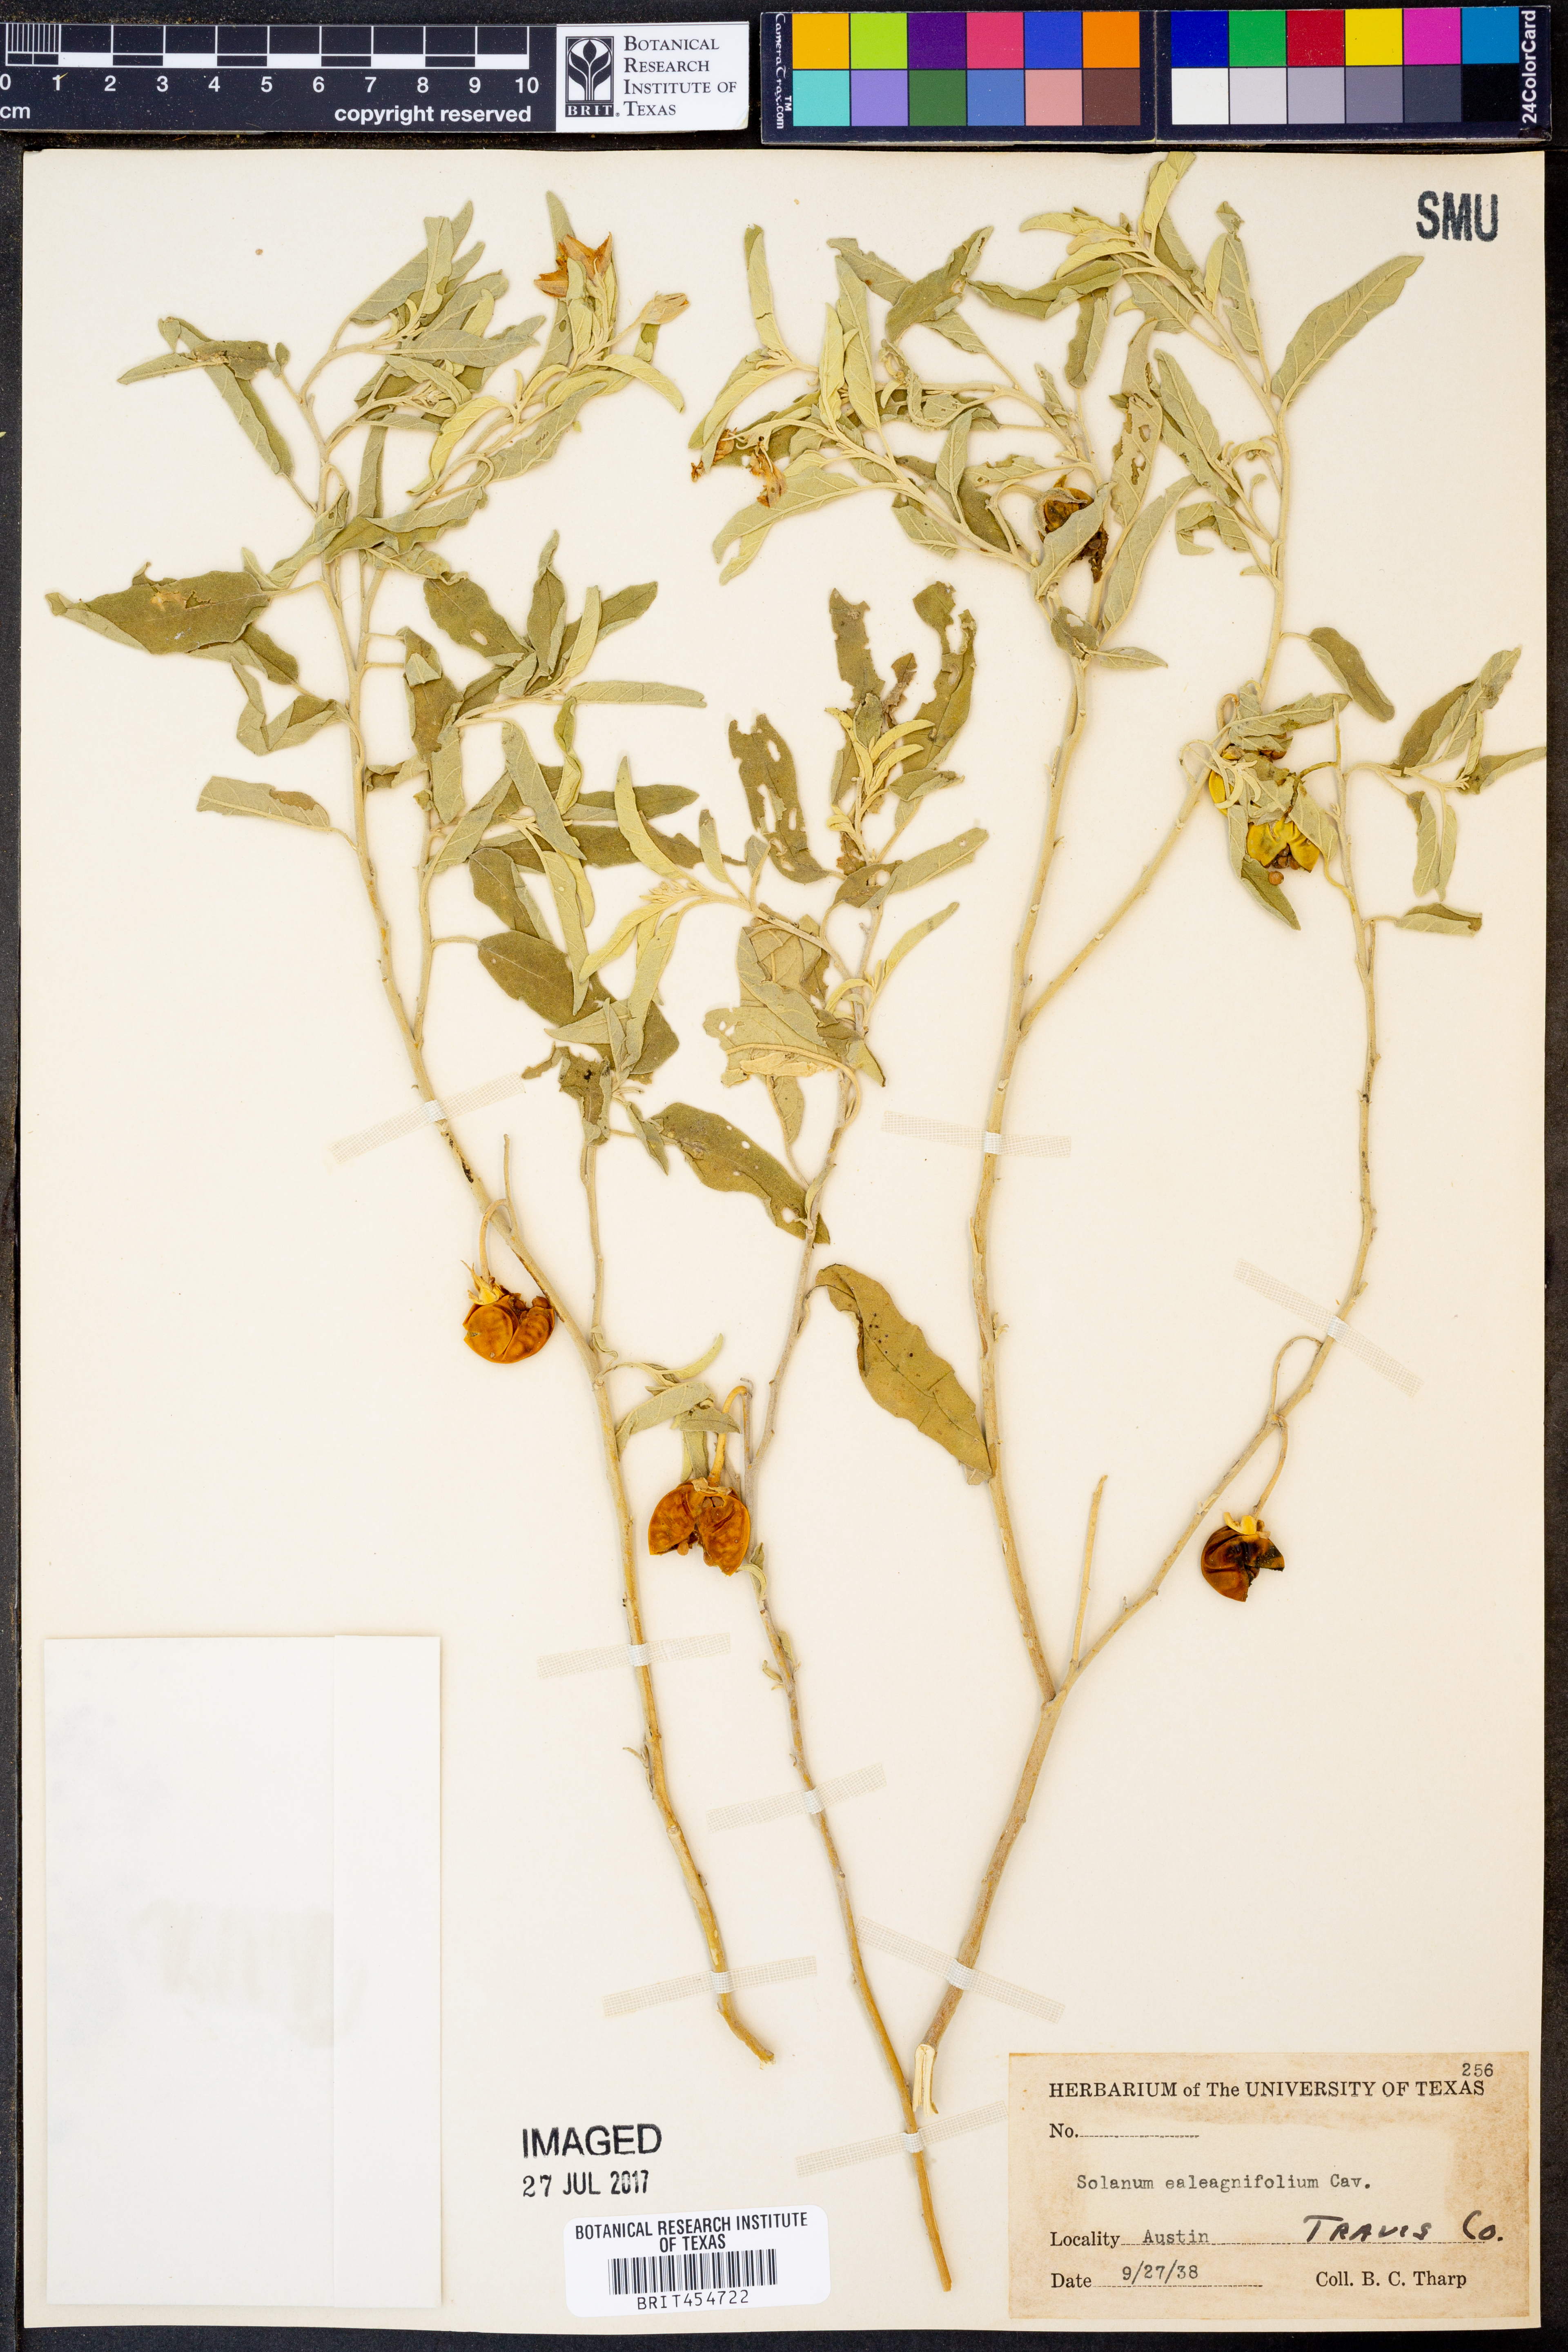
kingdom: Plantae
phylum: Tracheophyta
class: Magnoliopsida
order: Solanales
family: Solanaceae
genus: Solanum
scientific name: Solanum elaeagnifolium
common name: Silverleaf nightshade
